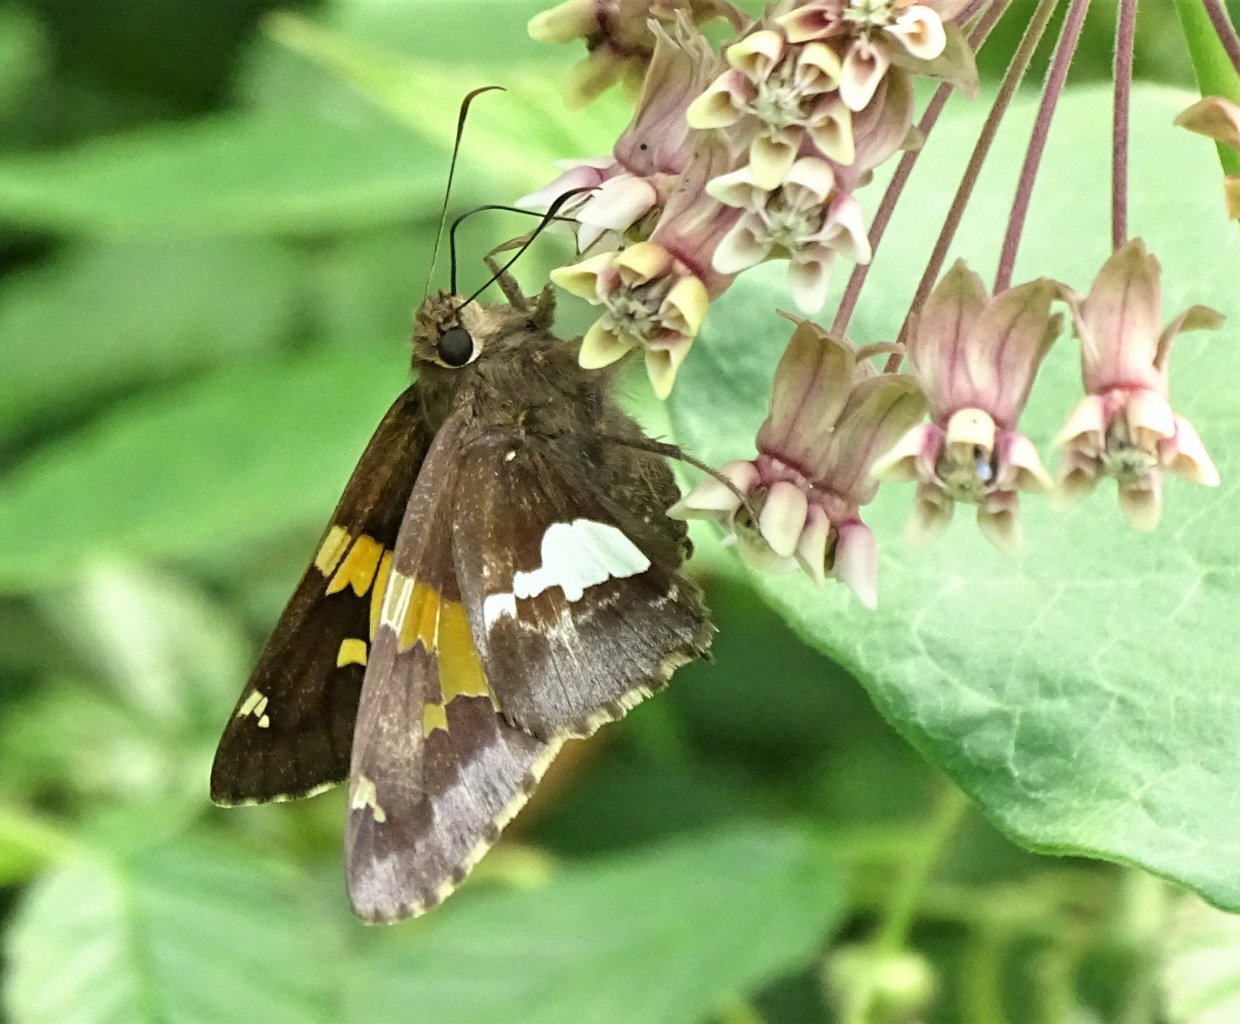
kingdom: Animalia
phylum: Arthropoda
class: Insecta
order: Lepidoptera
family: Hesperiidae
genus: Epargyreus
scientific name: Epargyreus clarus
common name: Silver-spotted Skipper
